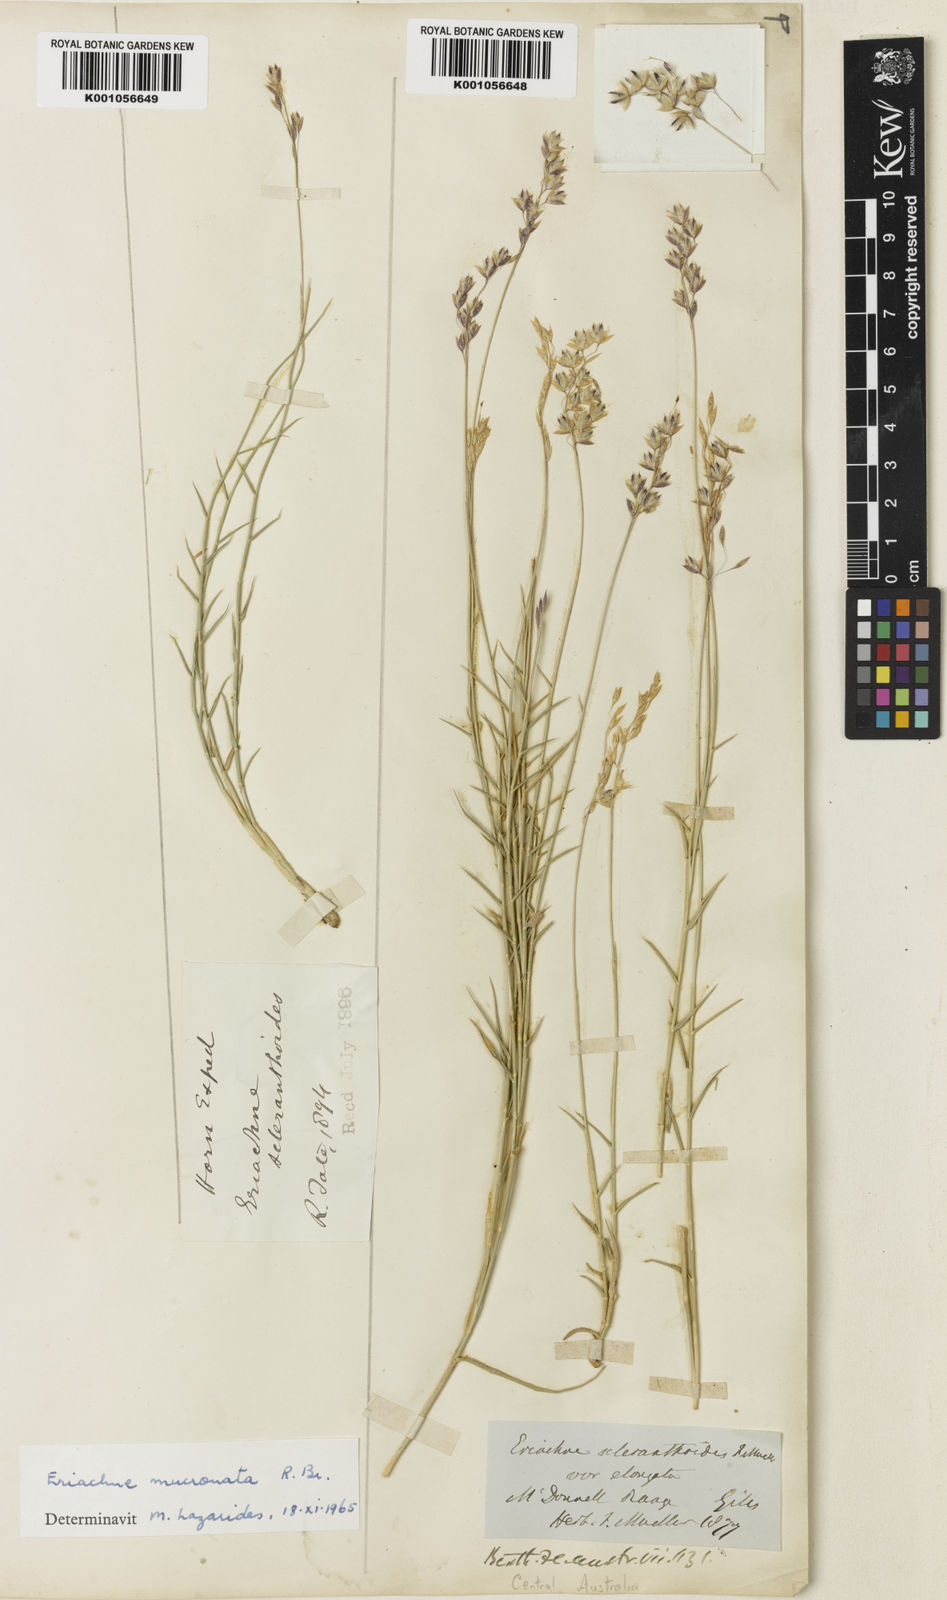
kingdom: Plantae
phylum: Tracheophyta
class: Liliopsida
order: Poales
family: Poaceae
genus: Eriachne
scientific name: Eriachne scleranthoides
